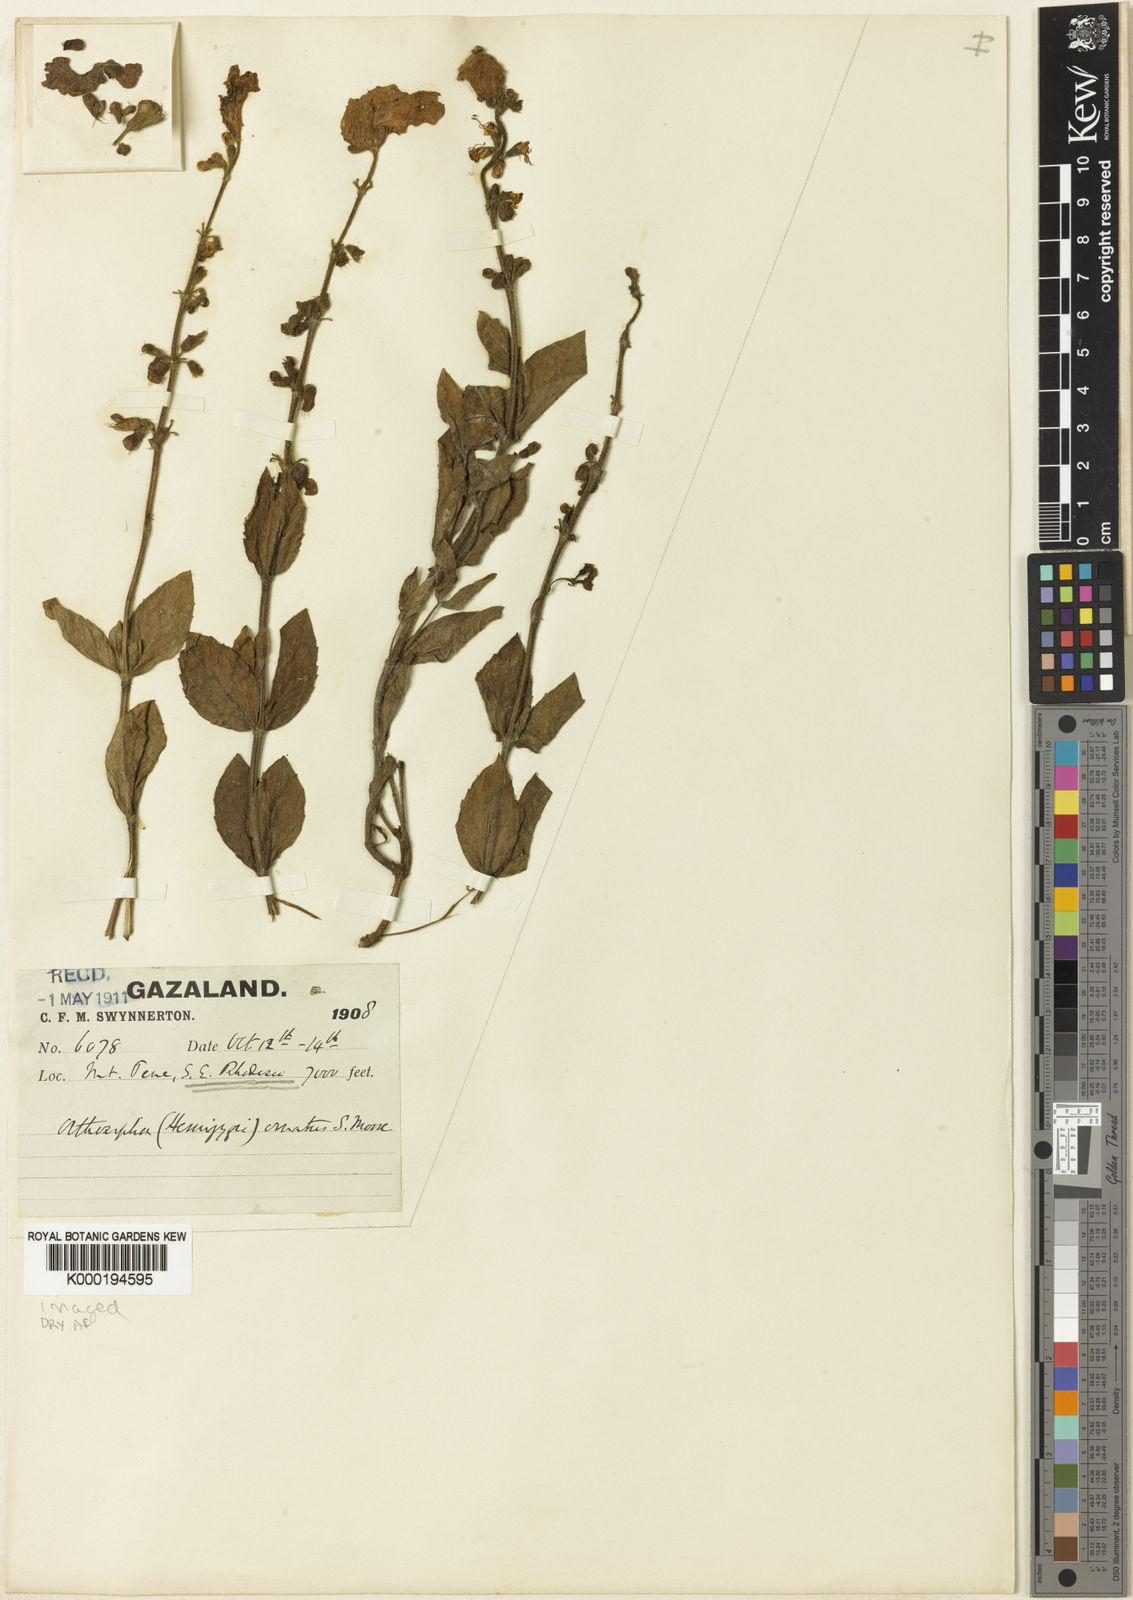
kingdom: Plantae
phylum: Tracheophyta
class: Magnoliopsida
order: Lamiales
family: Lamiaceae
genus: Syncolostemon
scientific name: Syncolostemon ornatus
